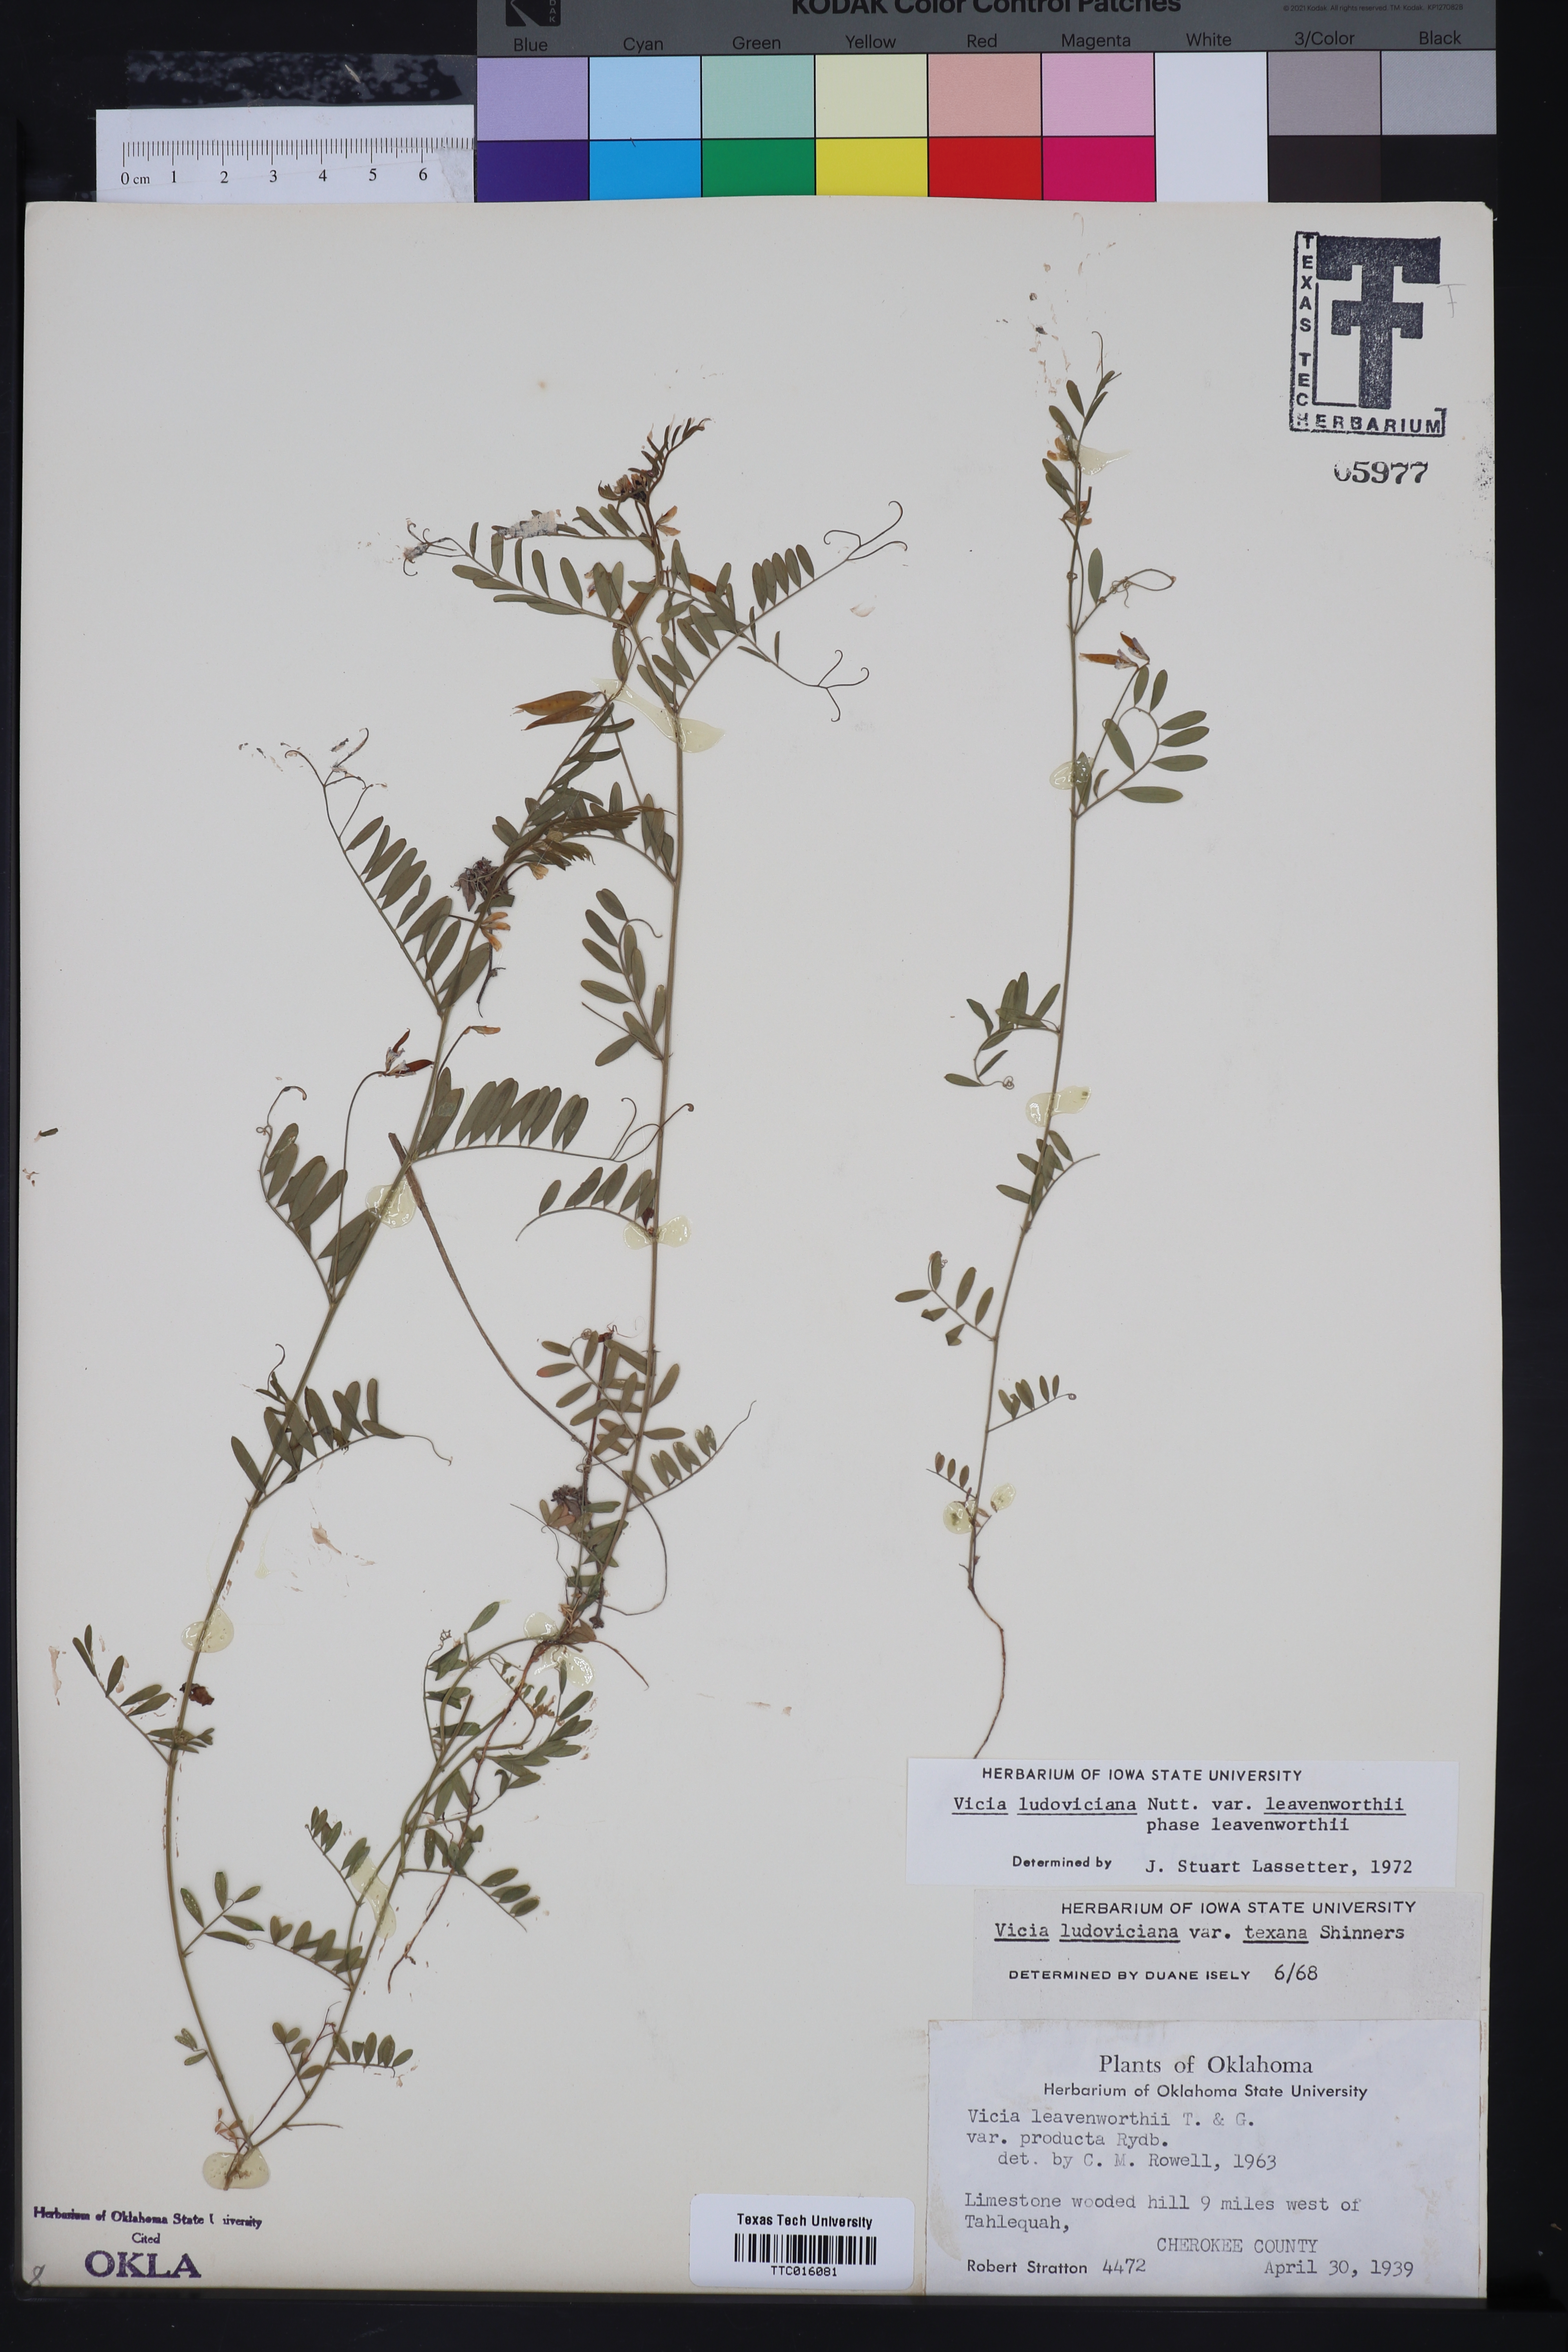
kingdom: Plantae
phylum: Tracheophyta
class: Magnoliopsida
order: Fabales
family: Fabaceae
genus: Vicia
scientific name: Vicia ludoviciana
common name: Louisiana vetch
